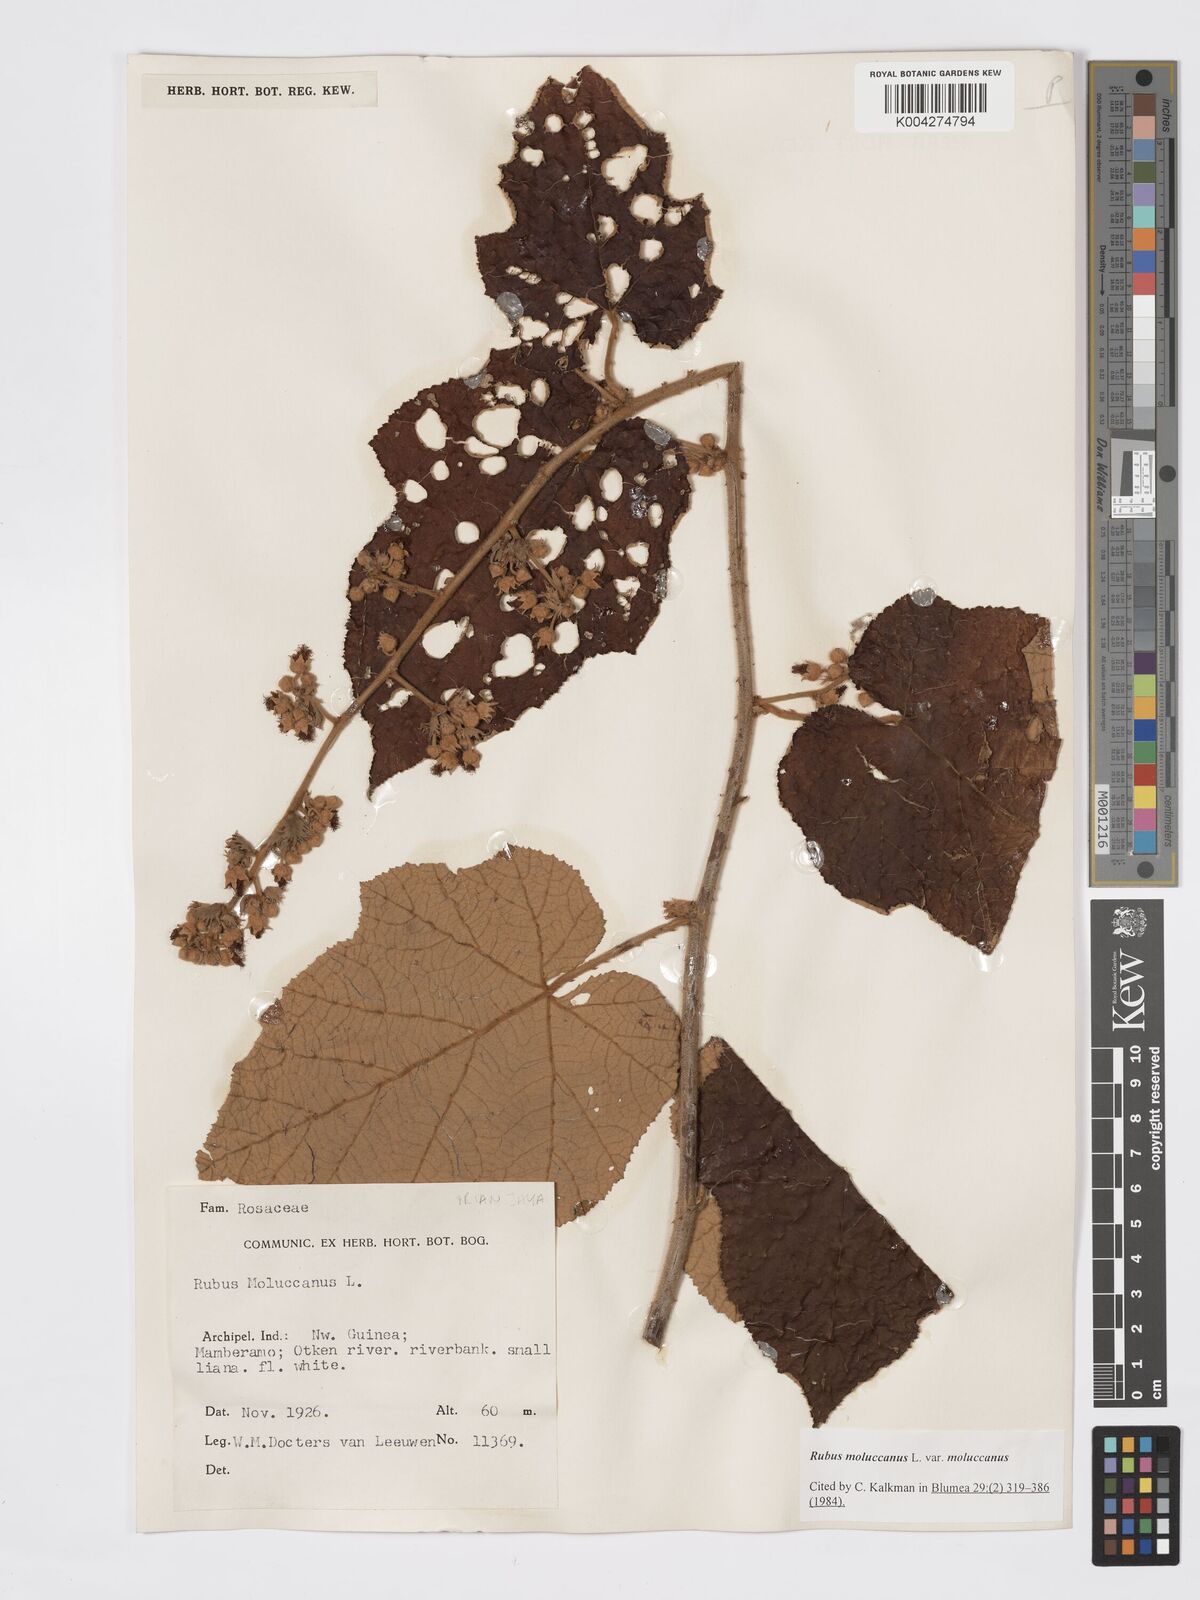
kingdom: Plantae
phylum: Tracheophyta
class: Magnoliopsida
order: Rosales
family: Rosaceae
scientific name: Rosaceae
